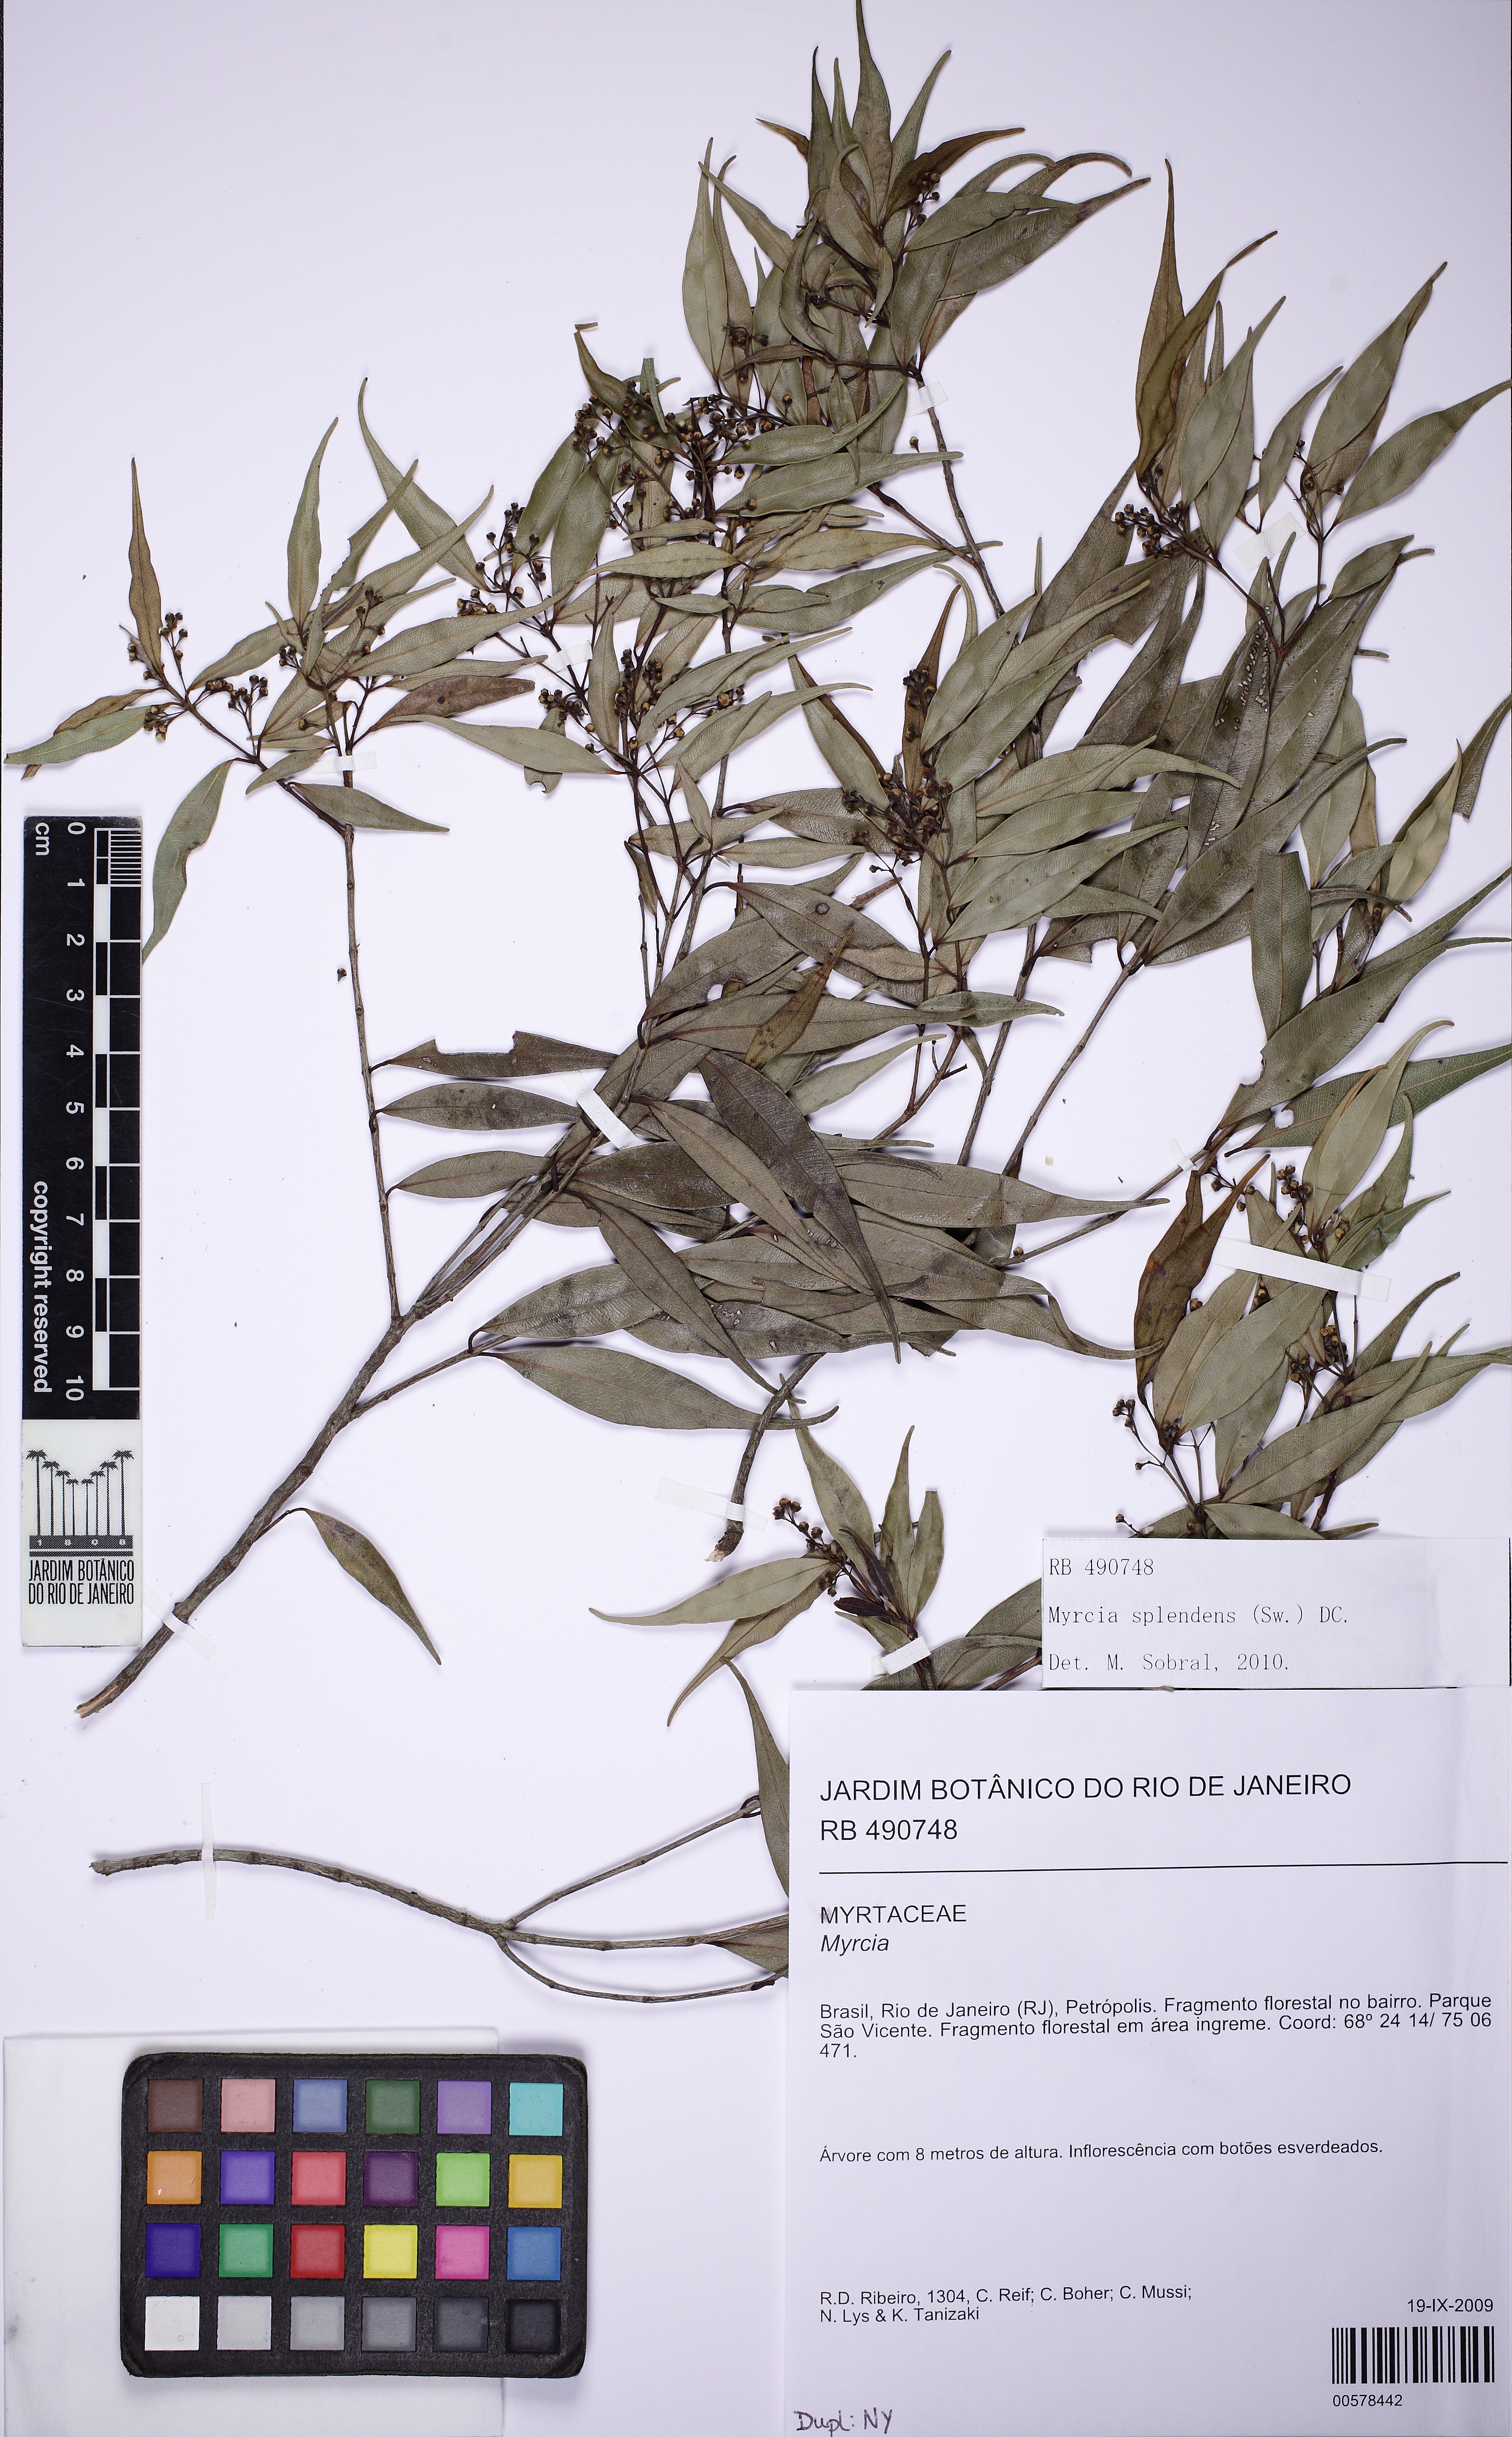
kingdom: Plantae
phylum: Tracheophyta
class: Magnoliopsida
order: Myrtales
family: Myrtaceae
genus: Myrcia
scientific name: Myrcia splendens
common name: Surinam cherry
